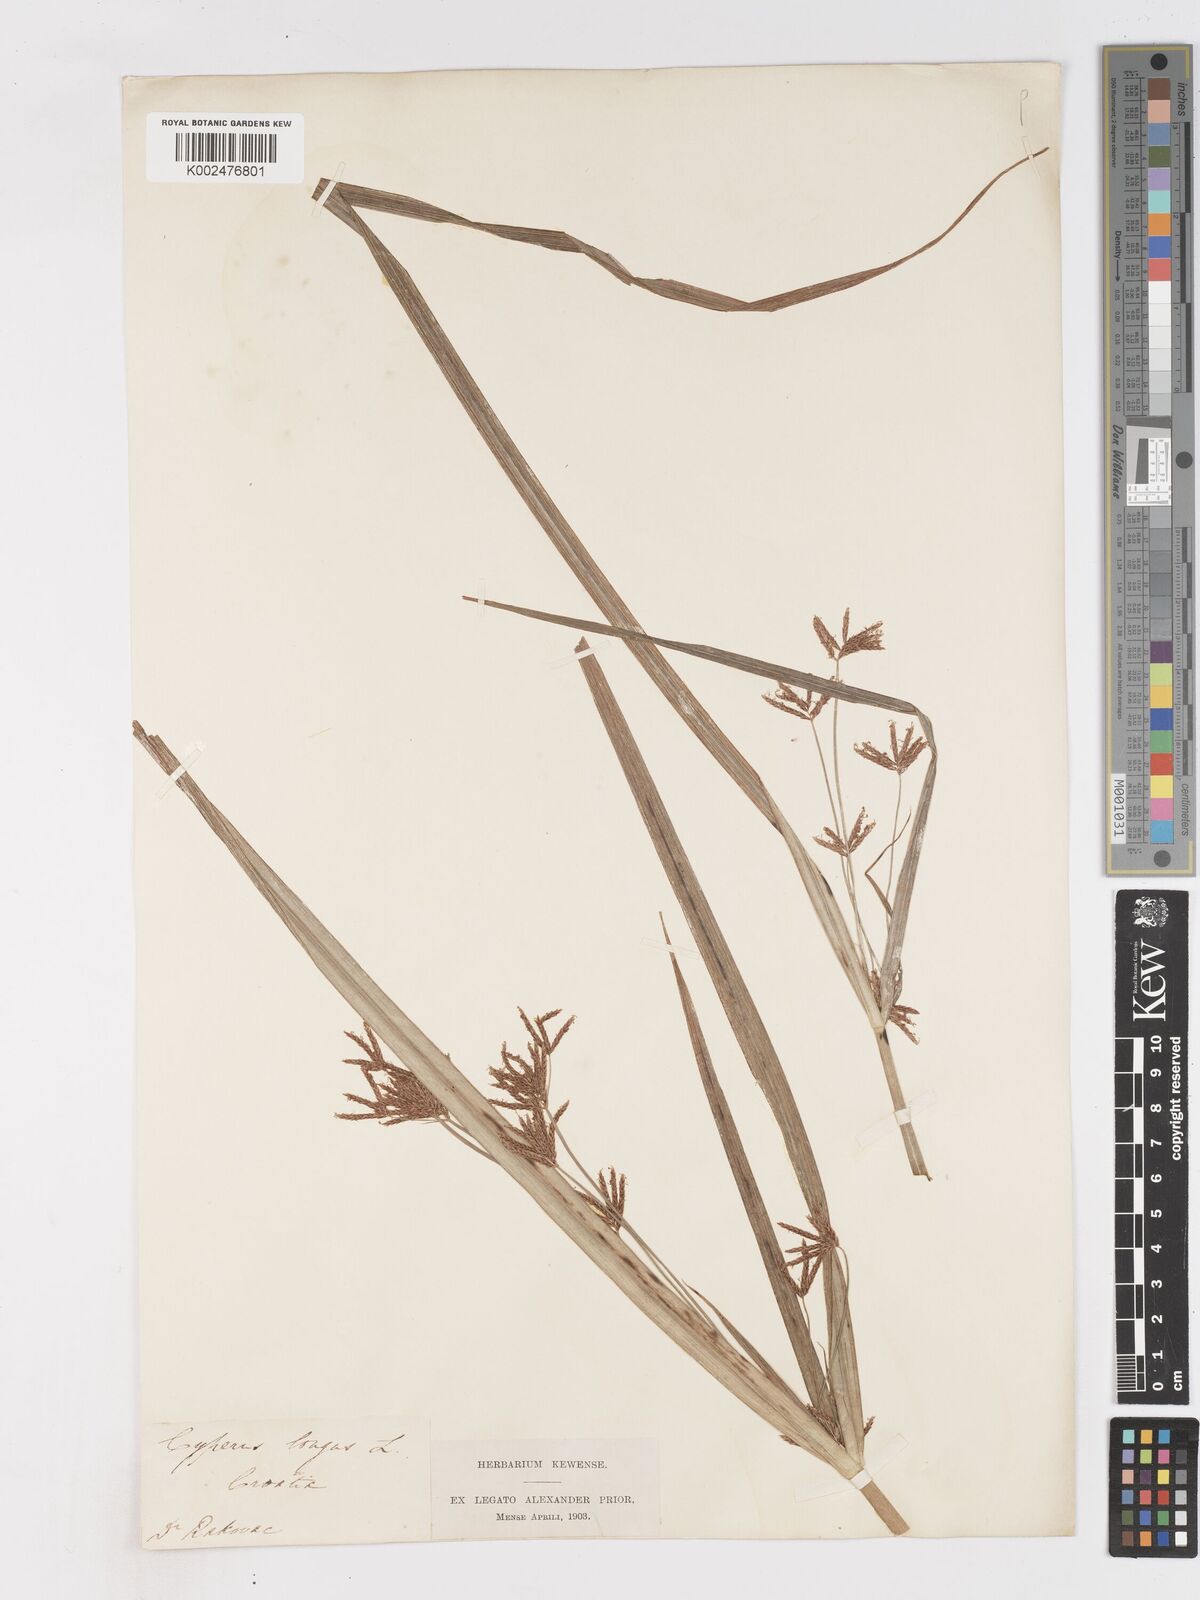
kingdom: Plantae
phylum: Tracheophyta
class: Liliopsida
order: Poales
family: Cyperaceae
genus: Cyperus
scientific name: Cyperus longus
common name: Galingale
